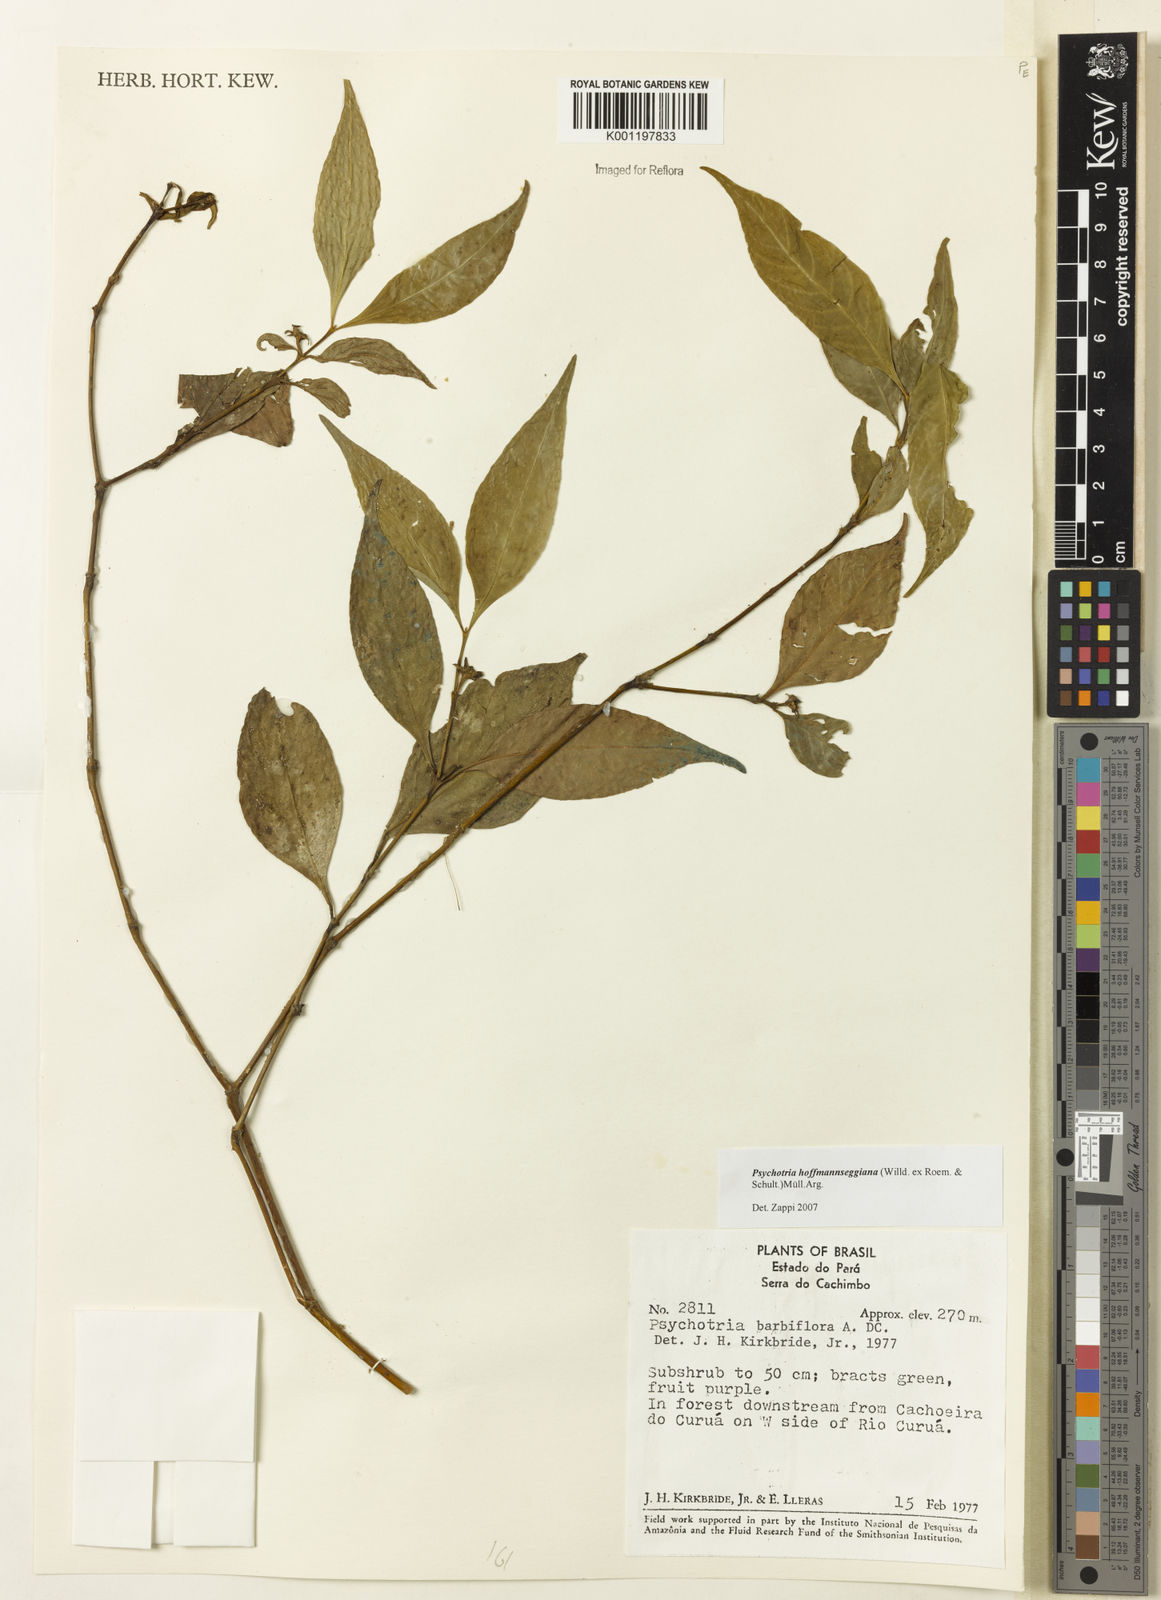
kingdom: Plantae
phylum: Tracheophyta
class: Magnoliopsida
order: Gentianales
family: Rubiaceae
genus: Psychotria
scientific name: Psychotria
